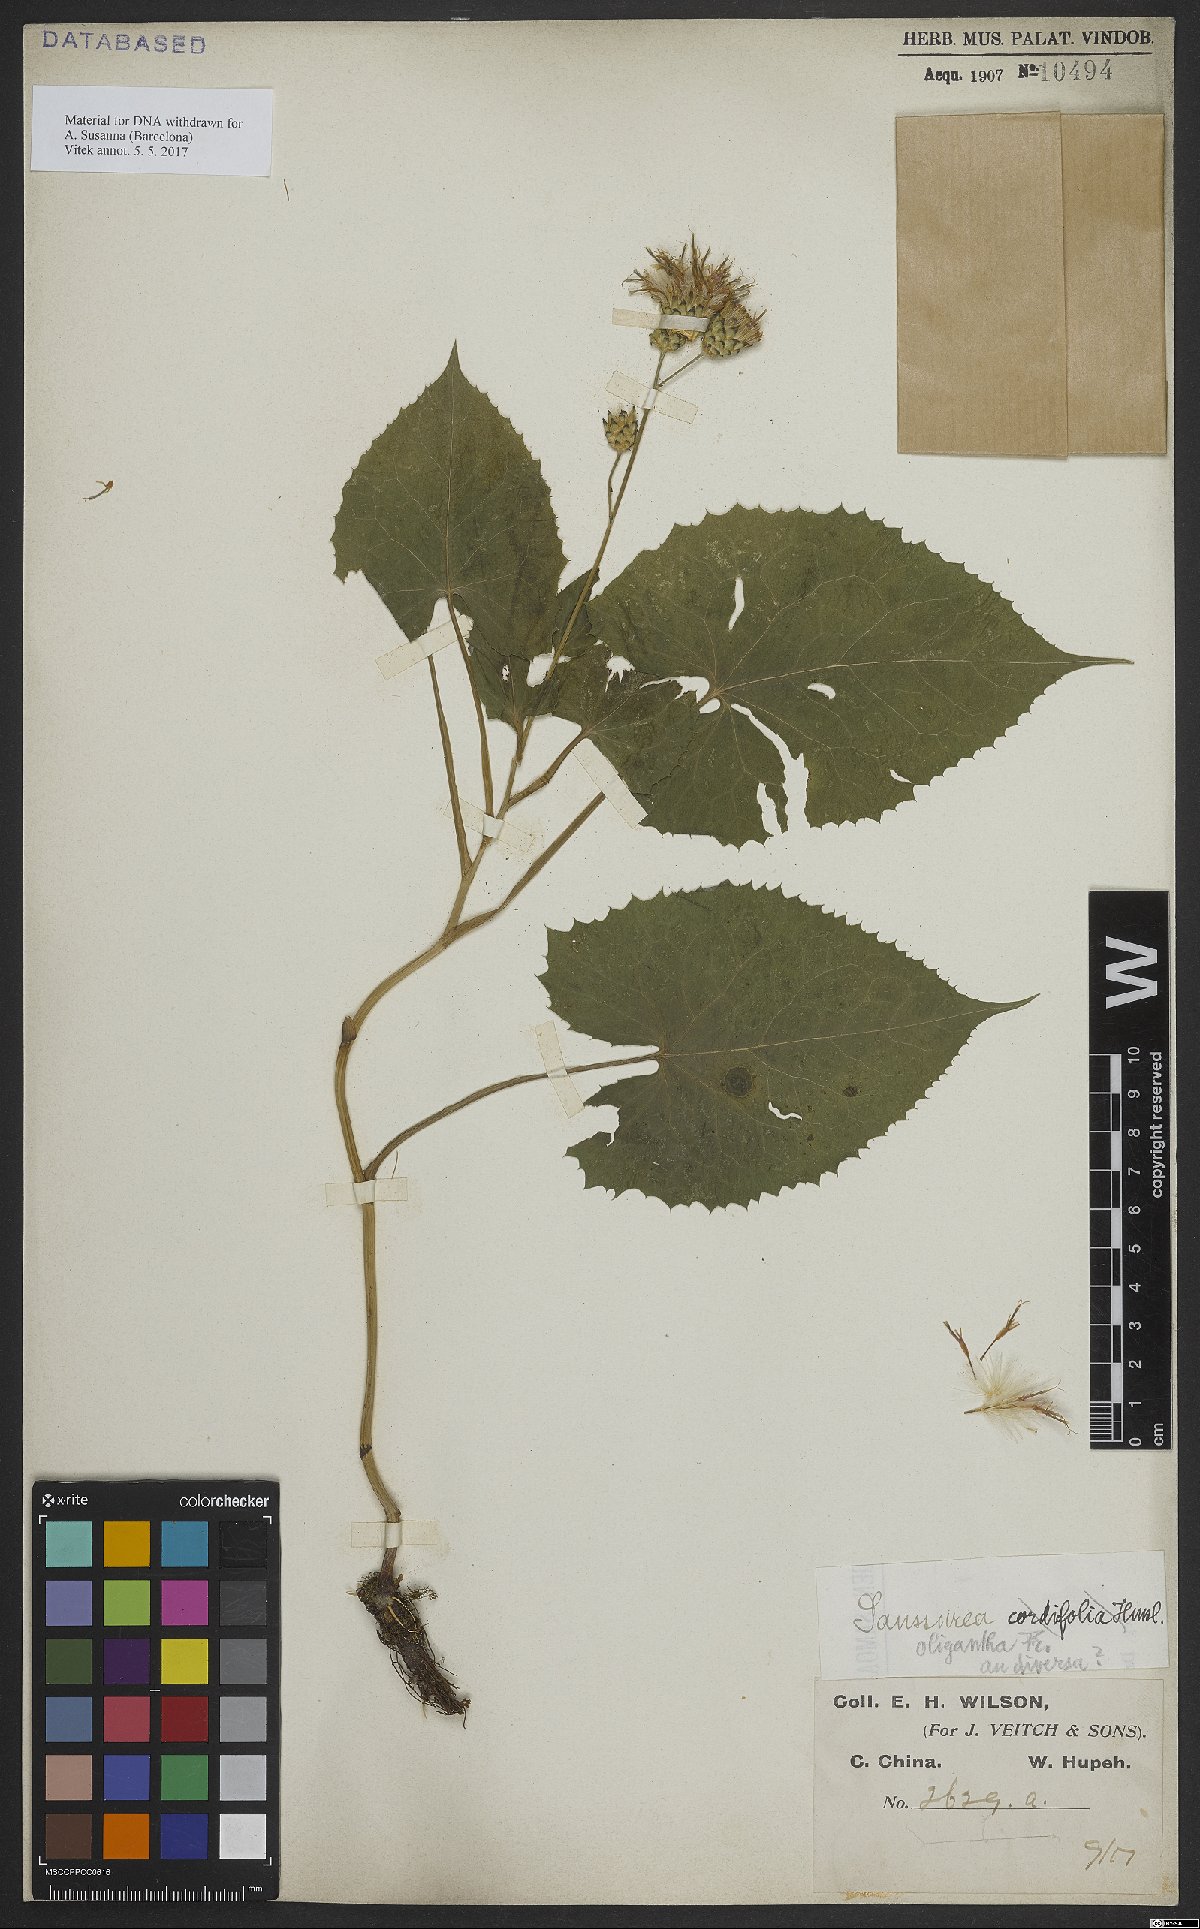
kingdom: Plantae
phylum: Tracheophyta
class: Magnoliopsida
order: Asterales
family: Asteraceae
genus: Saussurea
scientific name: Saussurea oligantha
